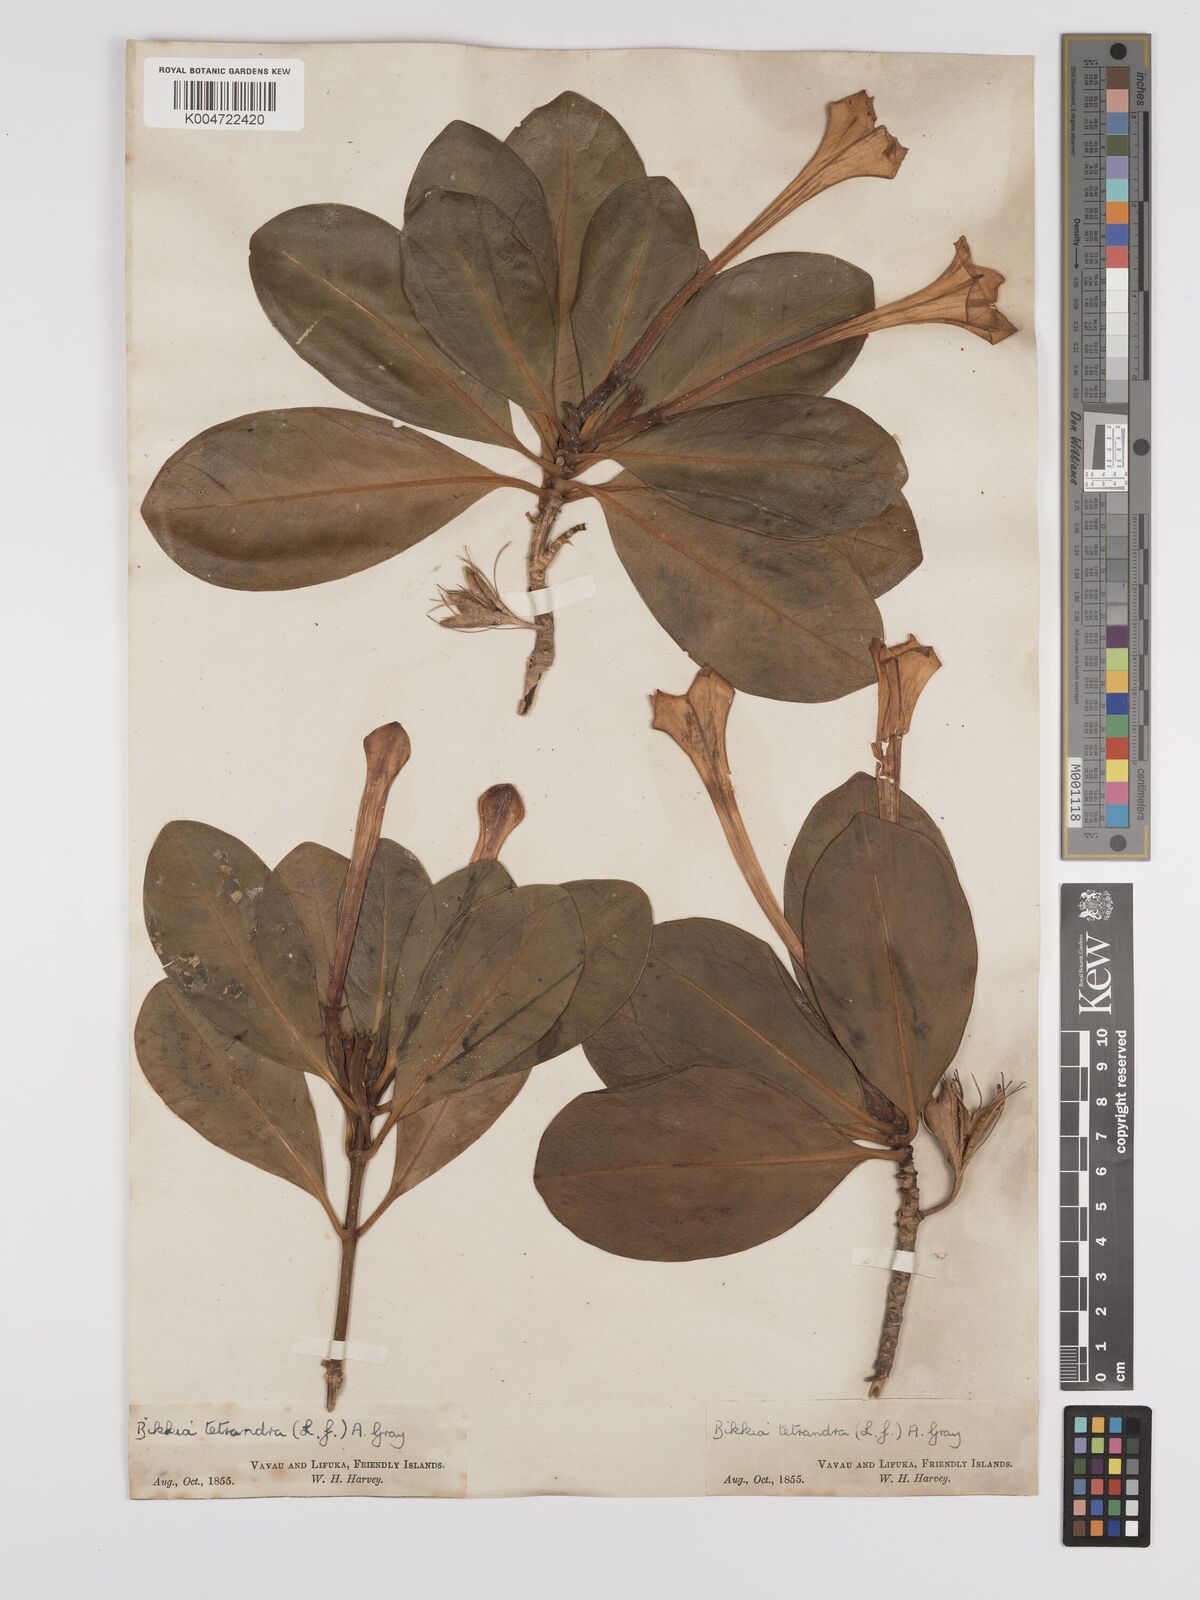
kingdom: Plantae
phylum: Tracheophyta
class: Magnoliopsida
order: Gentianales
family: Rubiaceae
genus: Bikkia
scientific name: Bikkia
